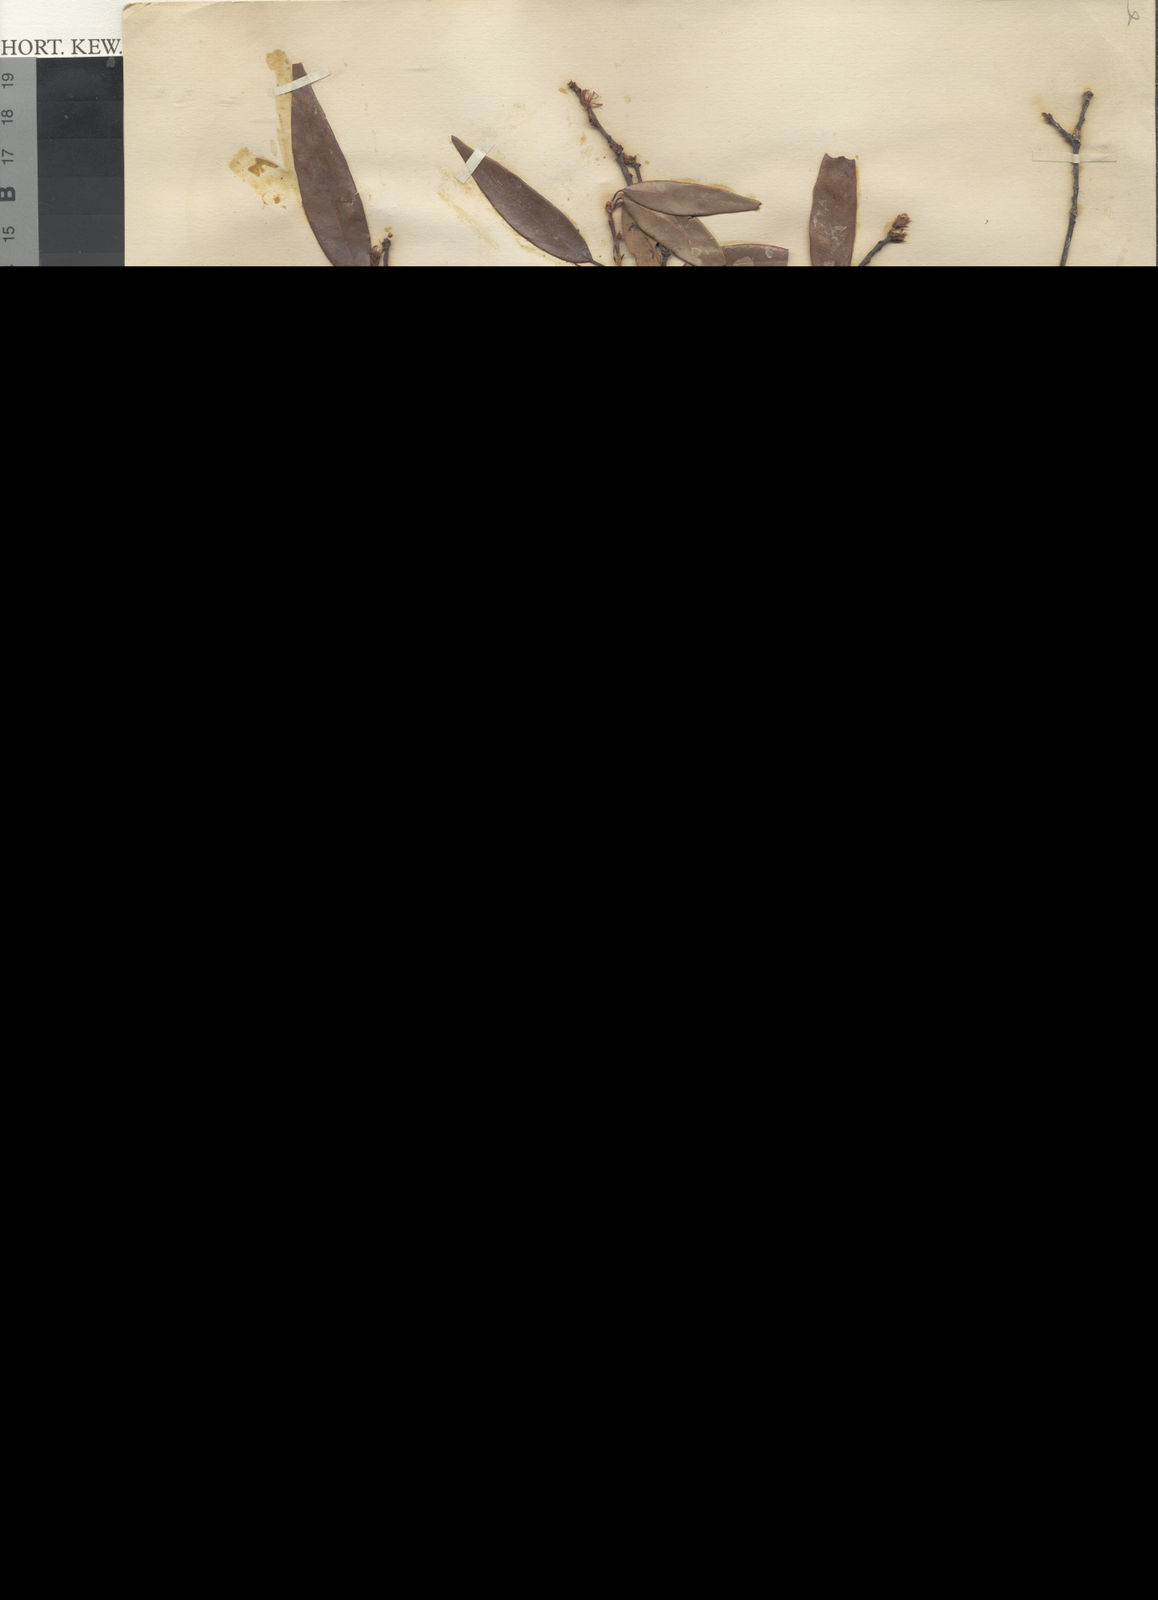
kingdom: Plantae
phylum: Tracheophyta
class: Magnoliopsida
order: Fagales
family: Fagaceae
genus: Quercus
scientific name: Quercus treubiana
